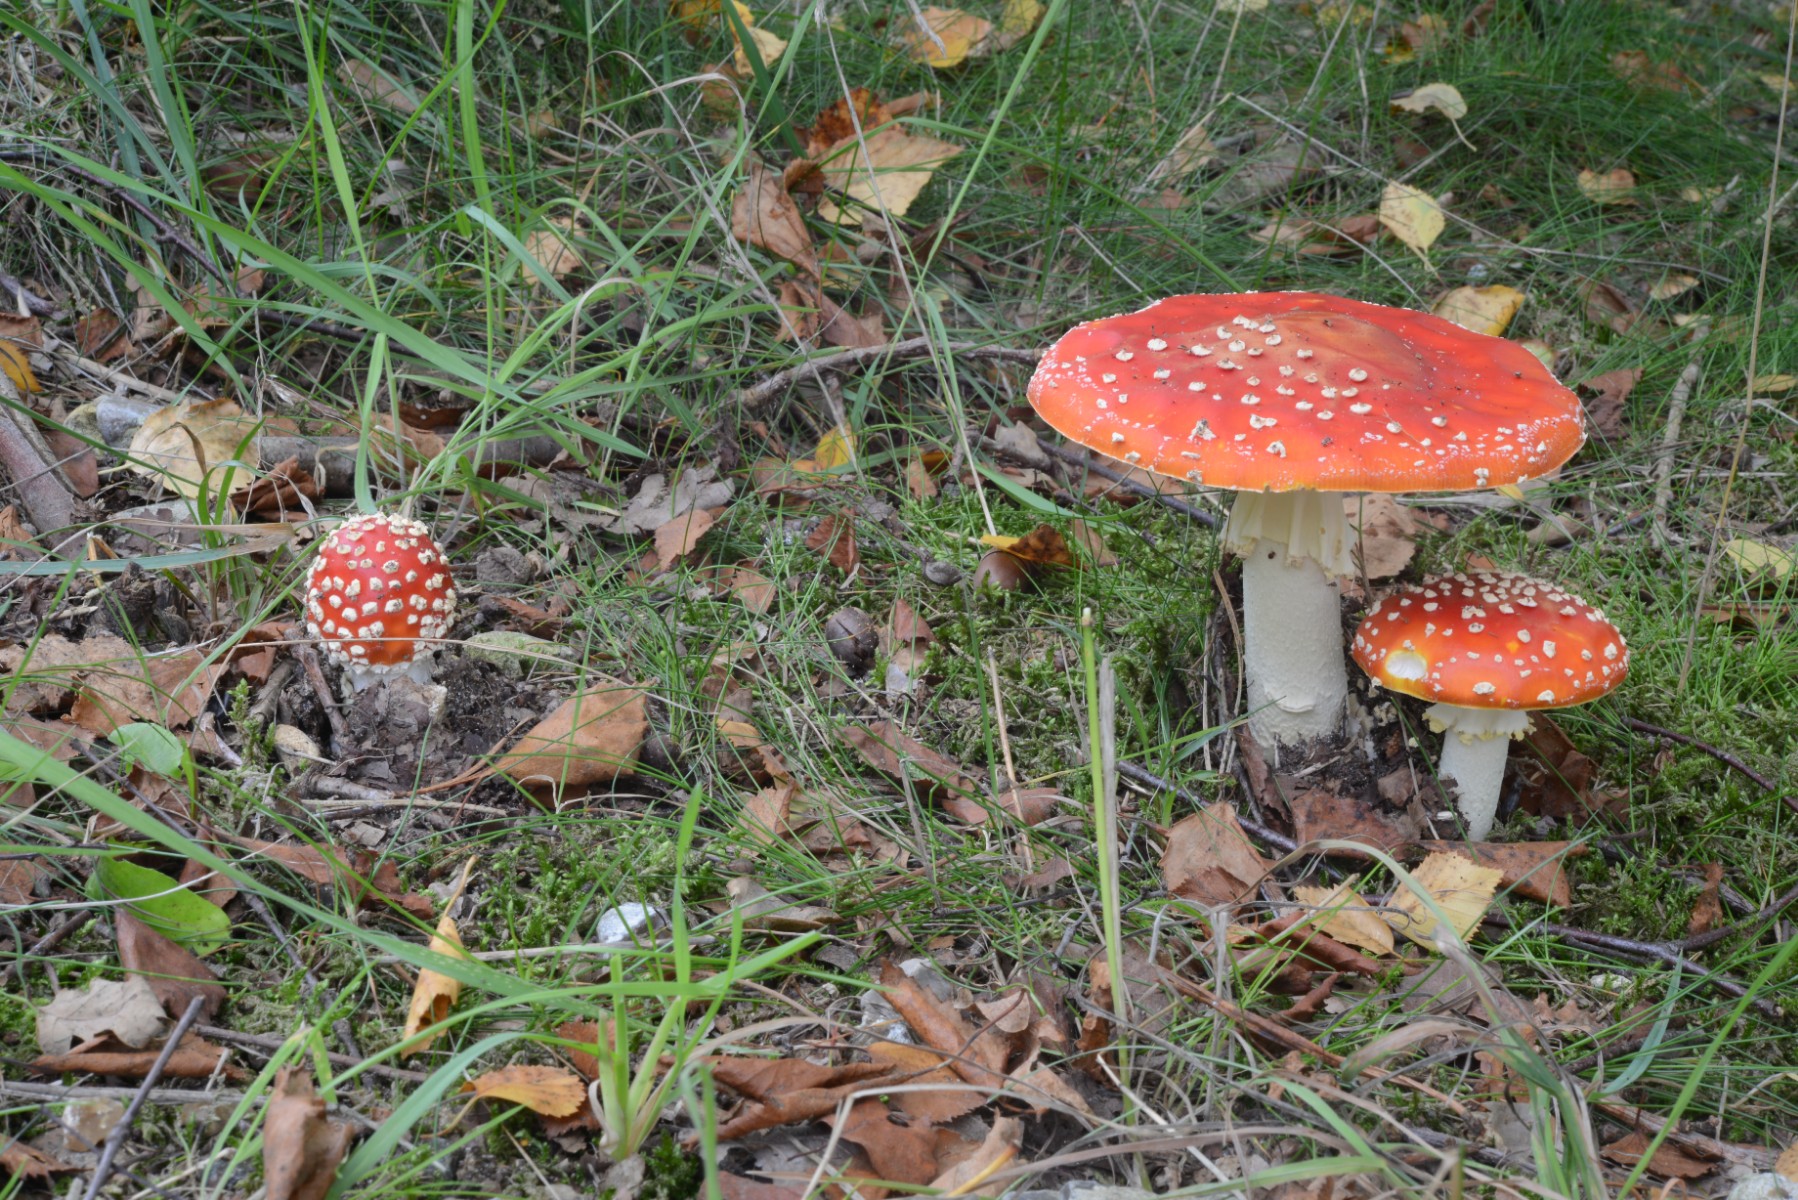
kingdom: Fungi
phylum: Basidiomycota
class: Agaricomycetes
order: Agaricales
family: Amanitaceae
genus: Amanita
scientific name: Amanita muscaria
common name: rød fluesvamp
